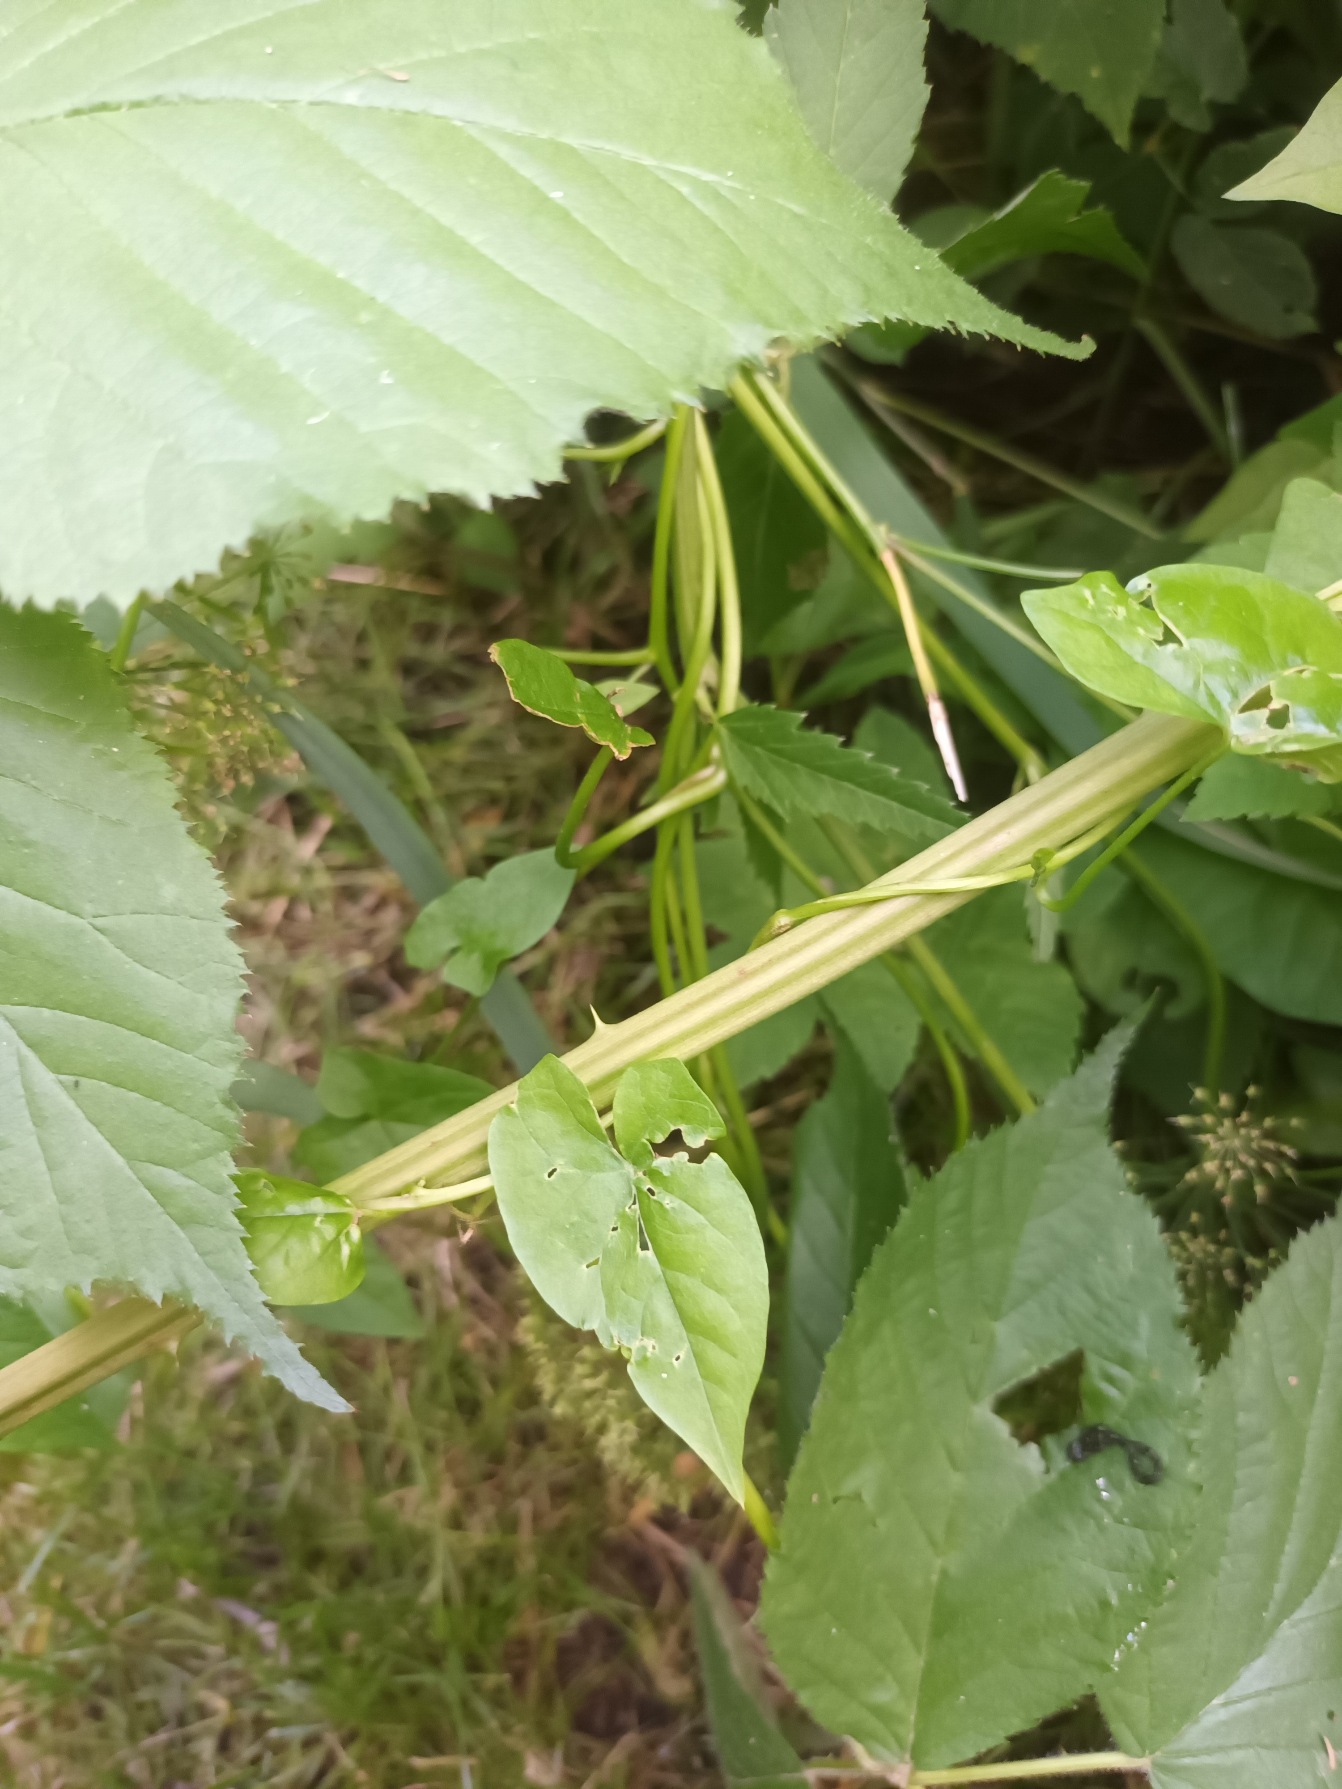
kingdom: Plantae
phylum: Tracheophyta
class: Magnoliopsida
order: Rosales
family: Rosaceae
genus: Rubus
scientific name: Rubus allegheniensis
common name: Allegheny-brombær
